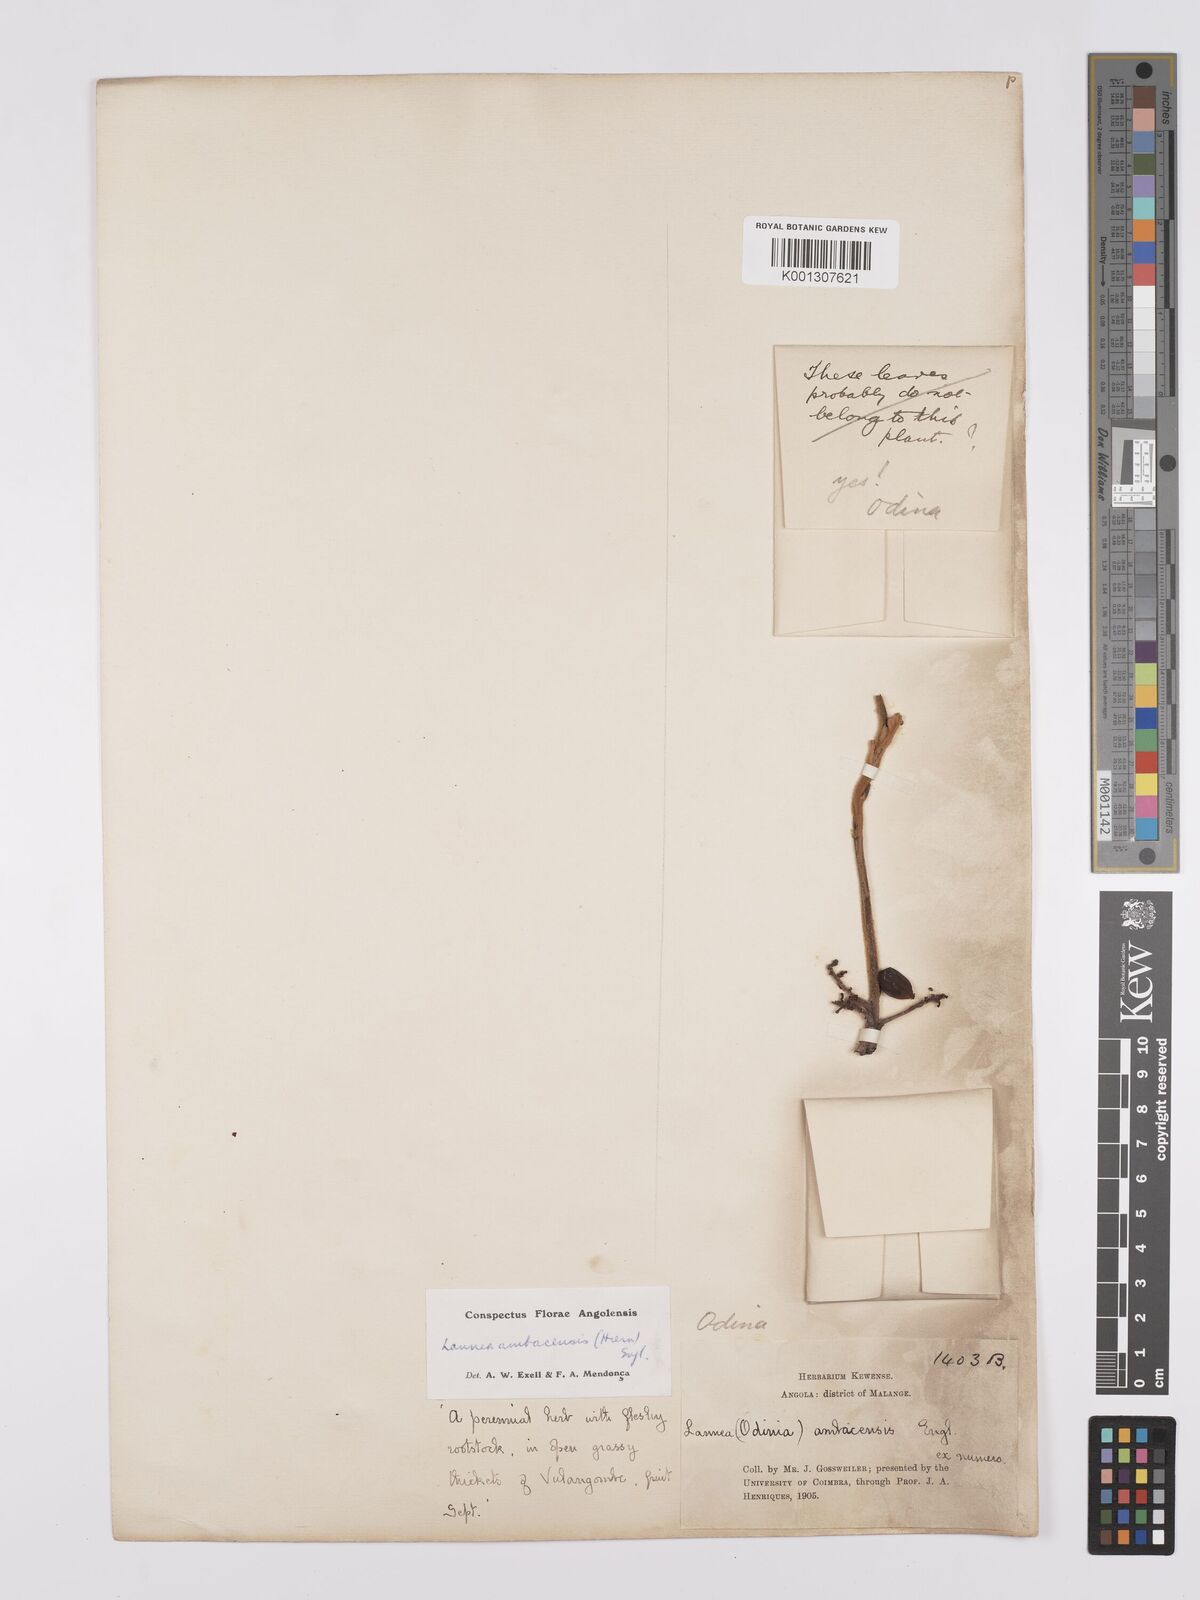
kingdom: Plantae
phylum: Tracheophyta
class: Magnoliopsida
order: Sapindales
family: Anacardiaceae
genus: Lannea
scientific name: Lannea ambacensis
